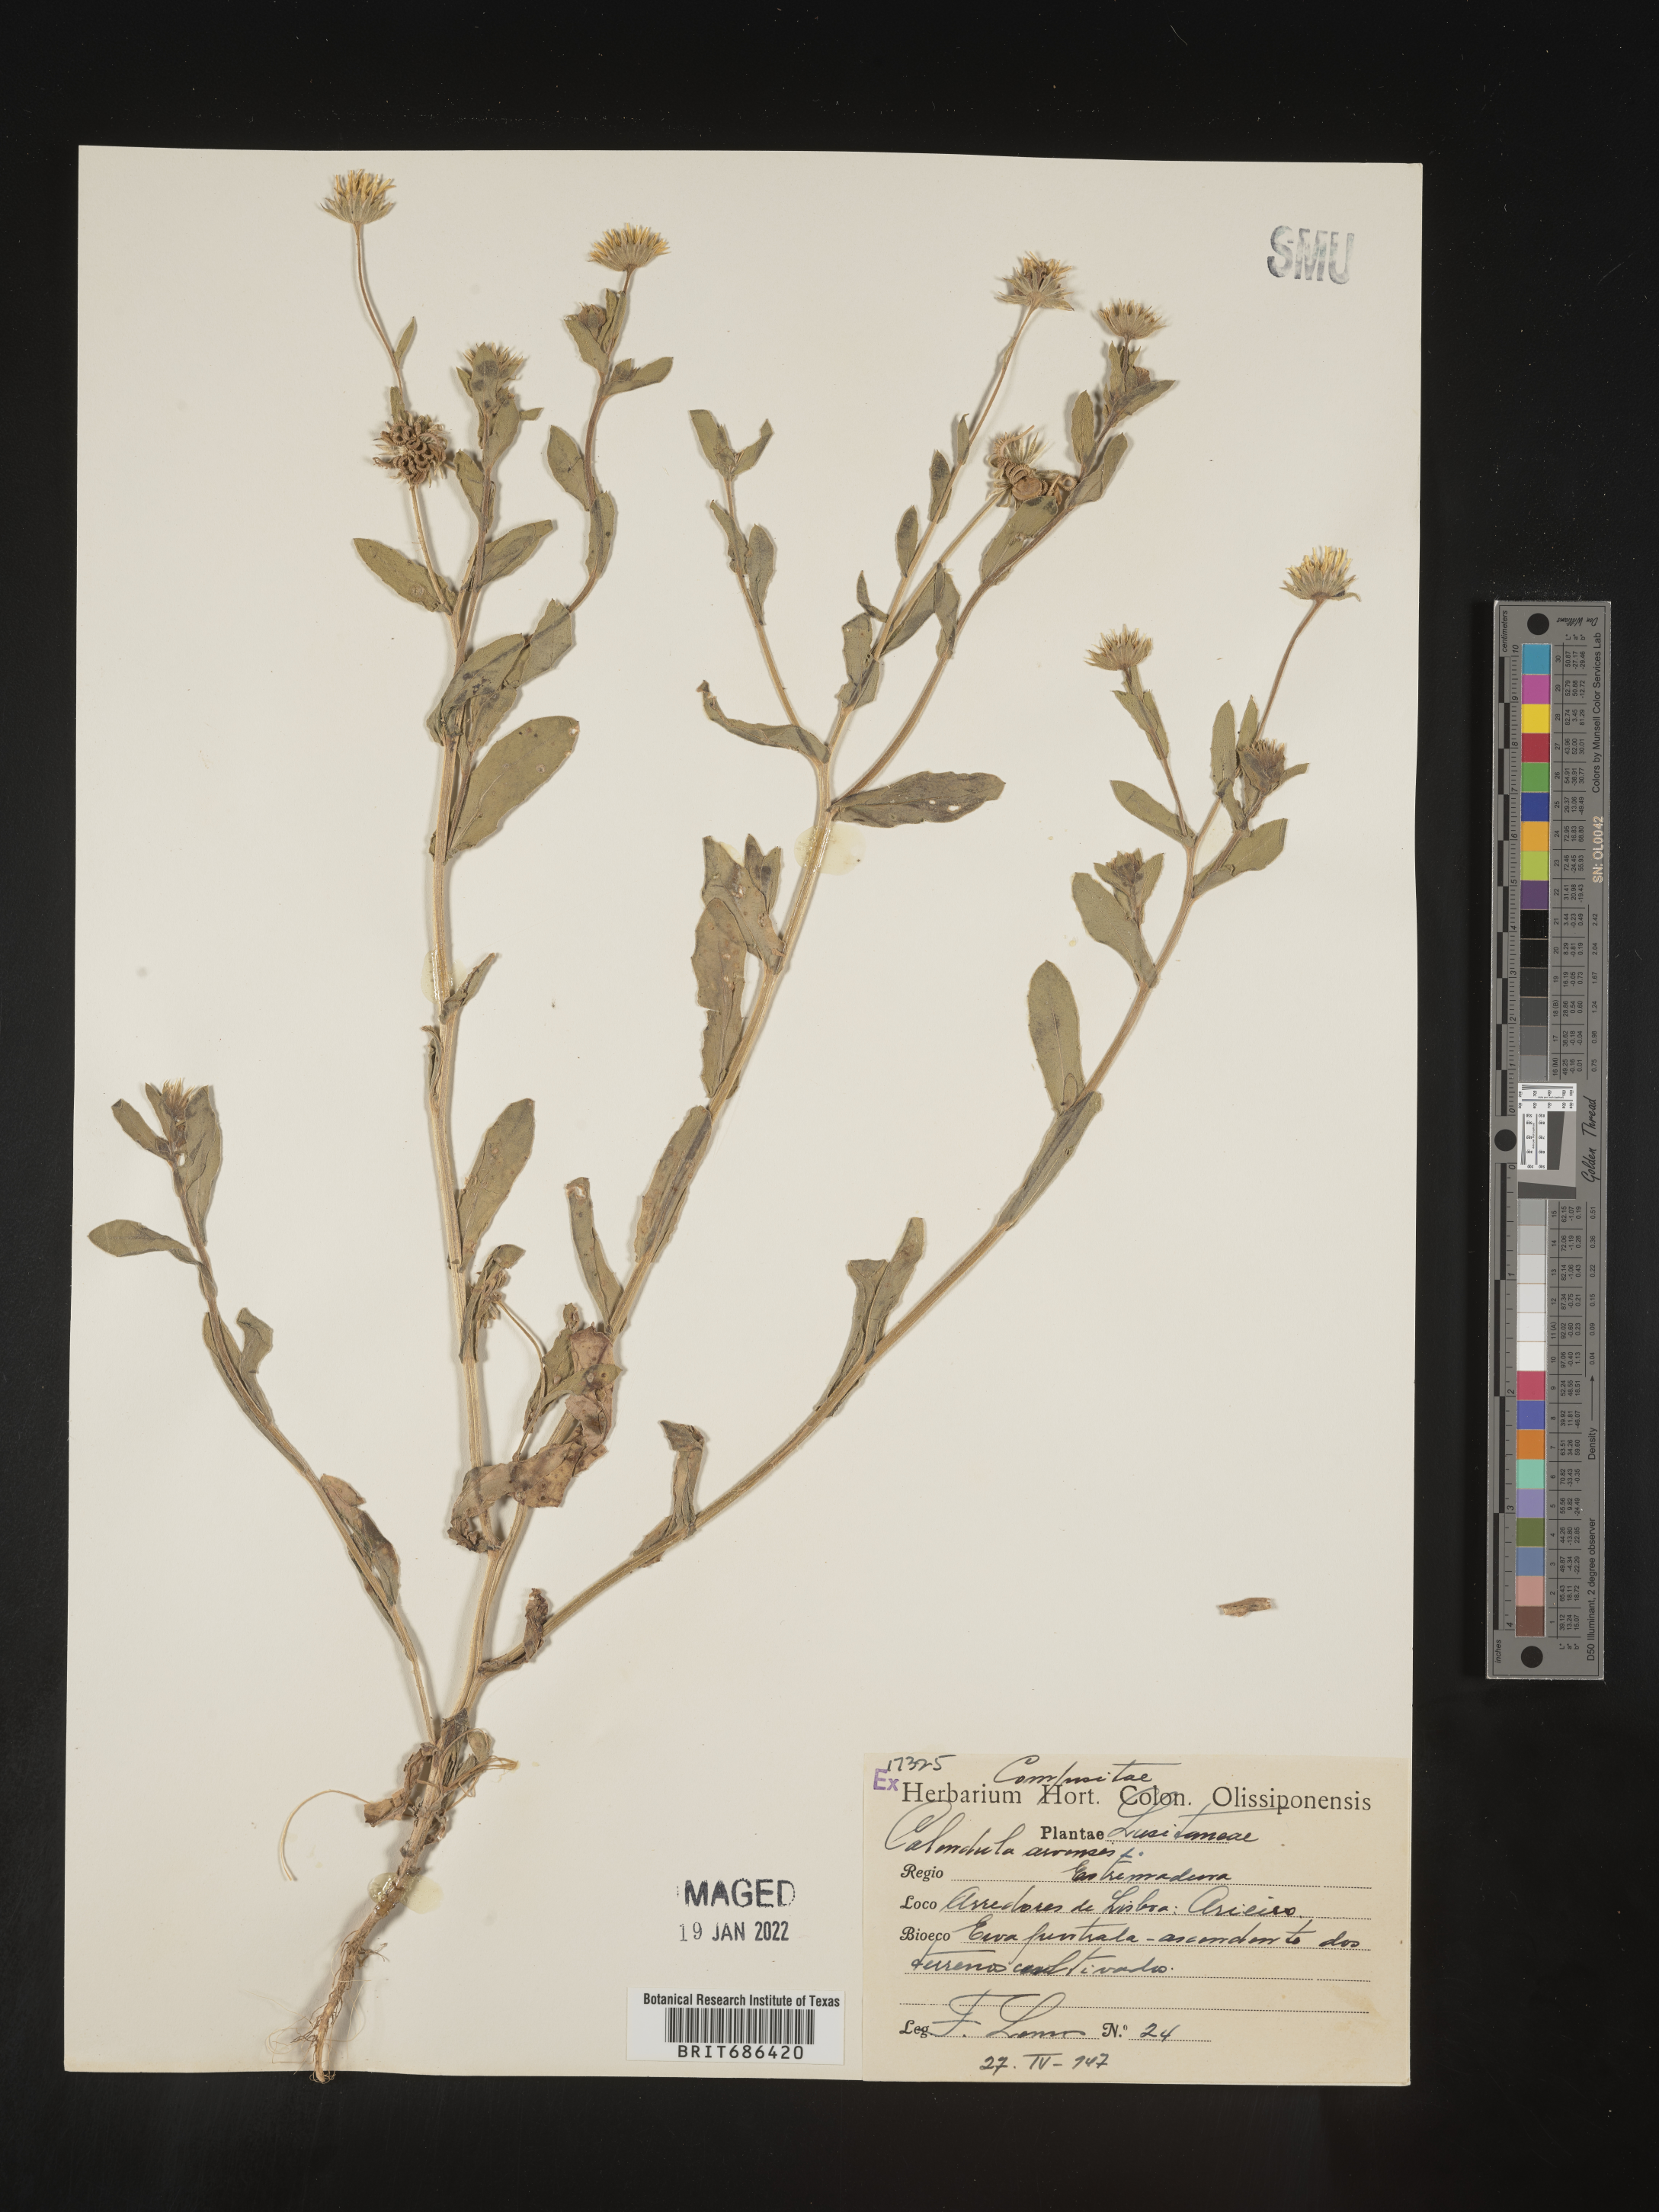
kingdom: Plantae
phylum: Tracheophyta
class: Magnoliopsida
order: Asterales
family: Asteraceae
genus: Calendula
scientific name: Calendula
